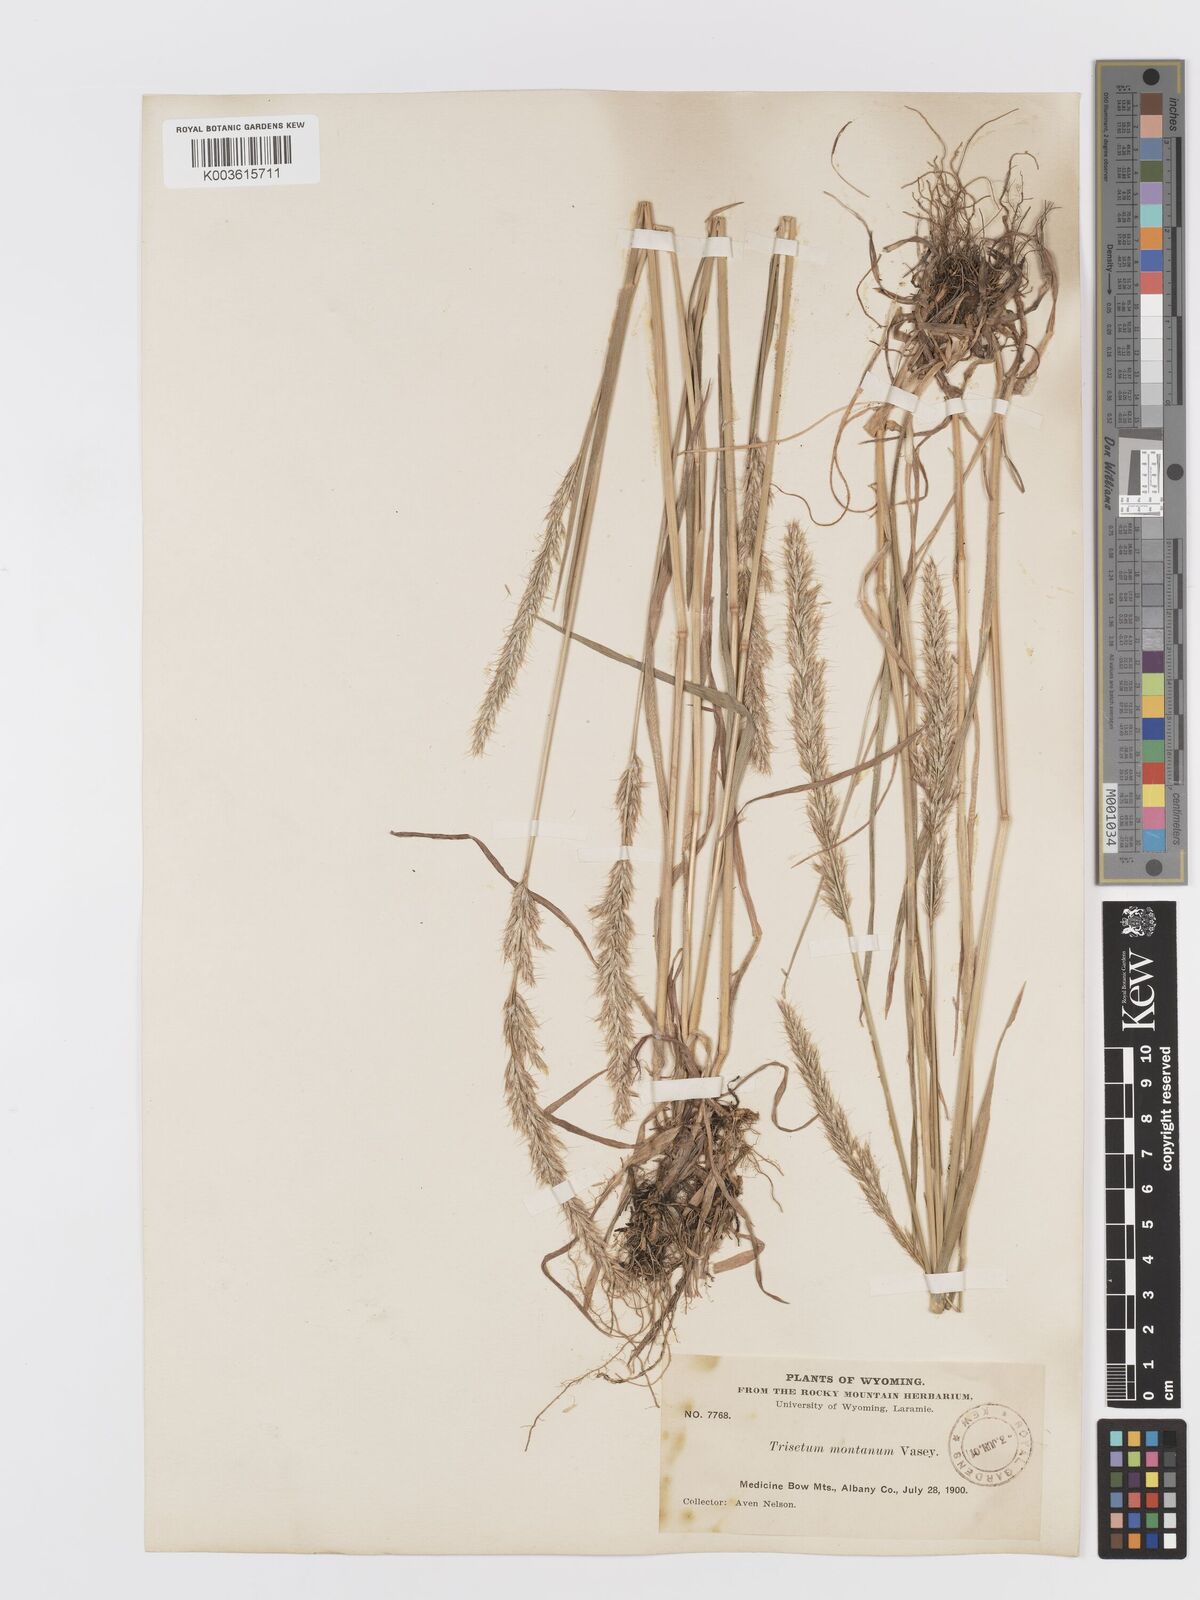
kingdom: Plantae
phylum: Tracheophyta
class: Liliopsida
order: Poales
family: Poaceae
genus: Koeleria
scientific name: Koeleria spicata
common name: Mountain trisetum
